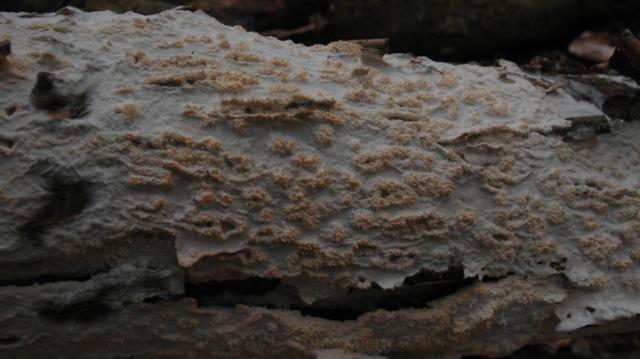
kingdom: Fungi
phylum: Basidiomycota
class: Agaricomycetes
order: Polyporales
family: Hyphodermataceae
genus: Hyphoderma
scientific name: Hyphoderma setigerum
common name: håret kalkskind
